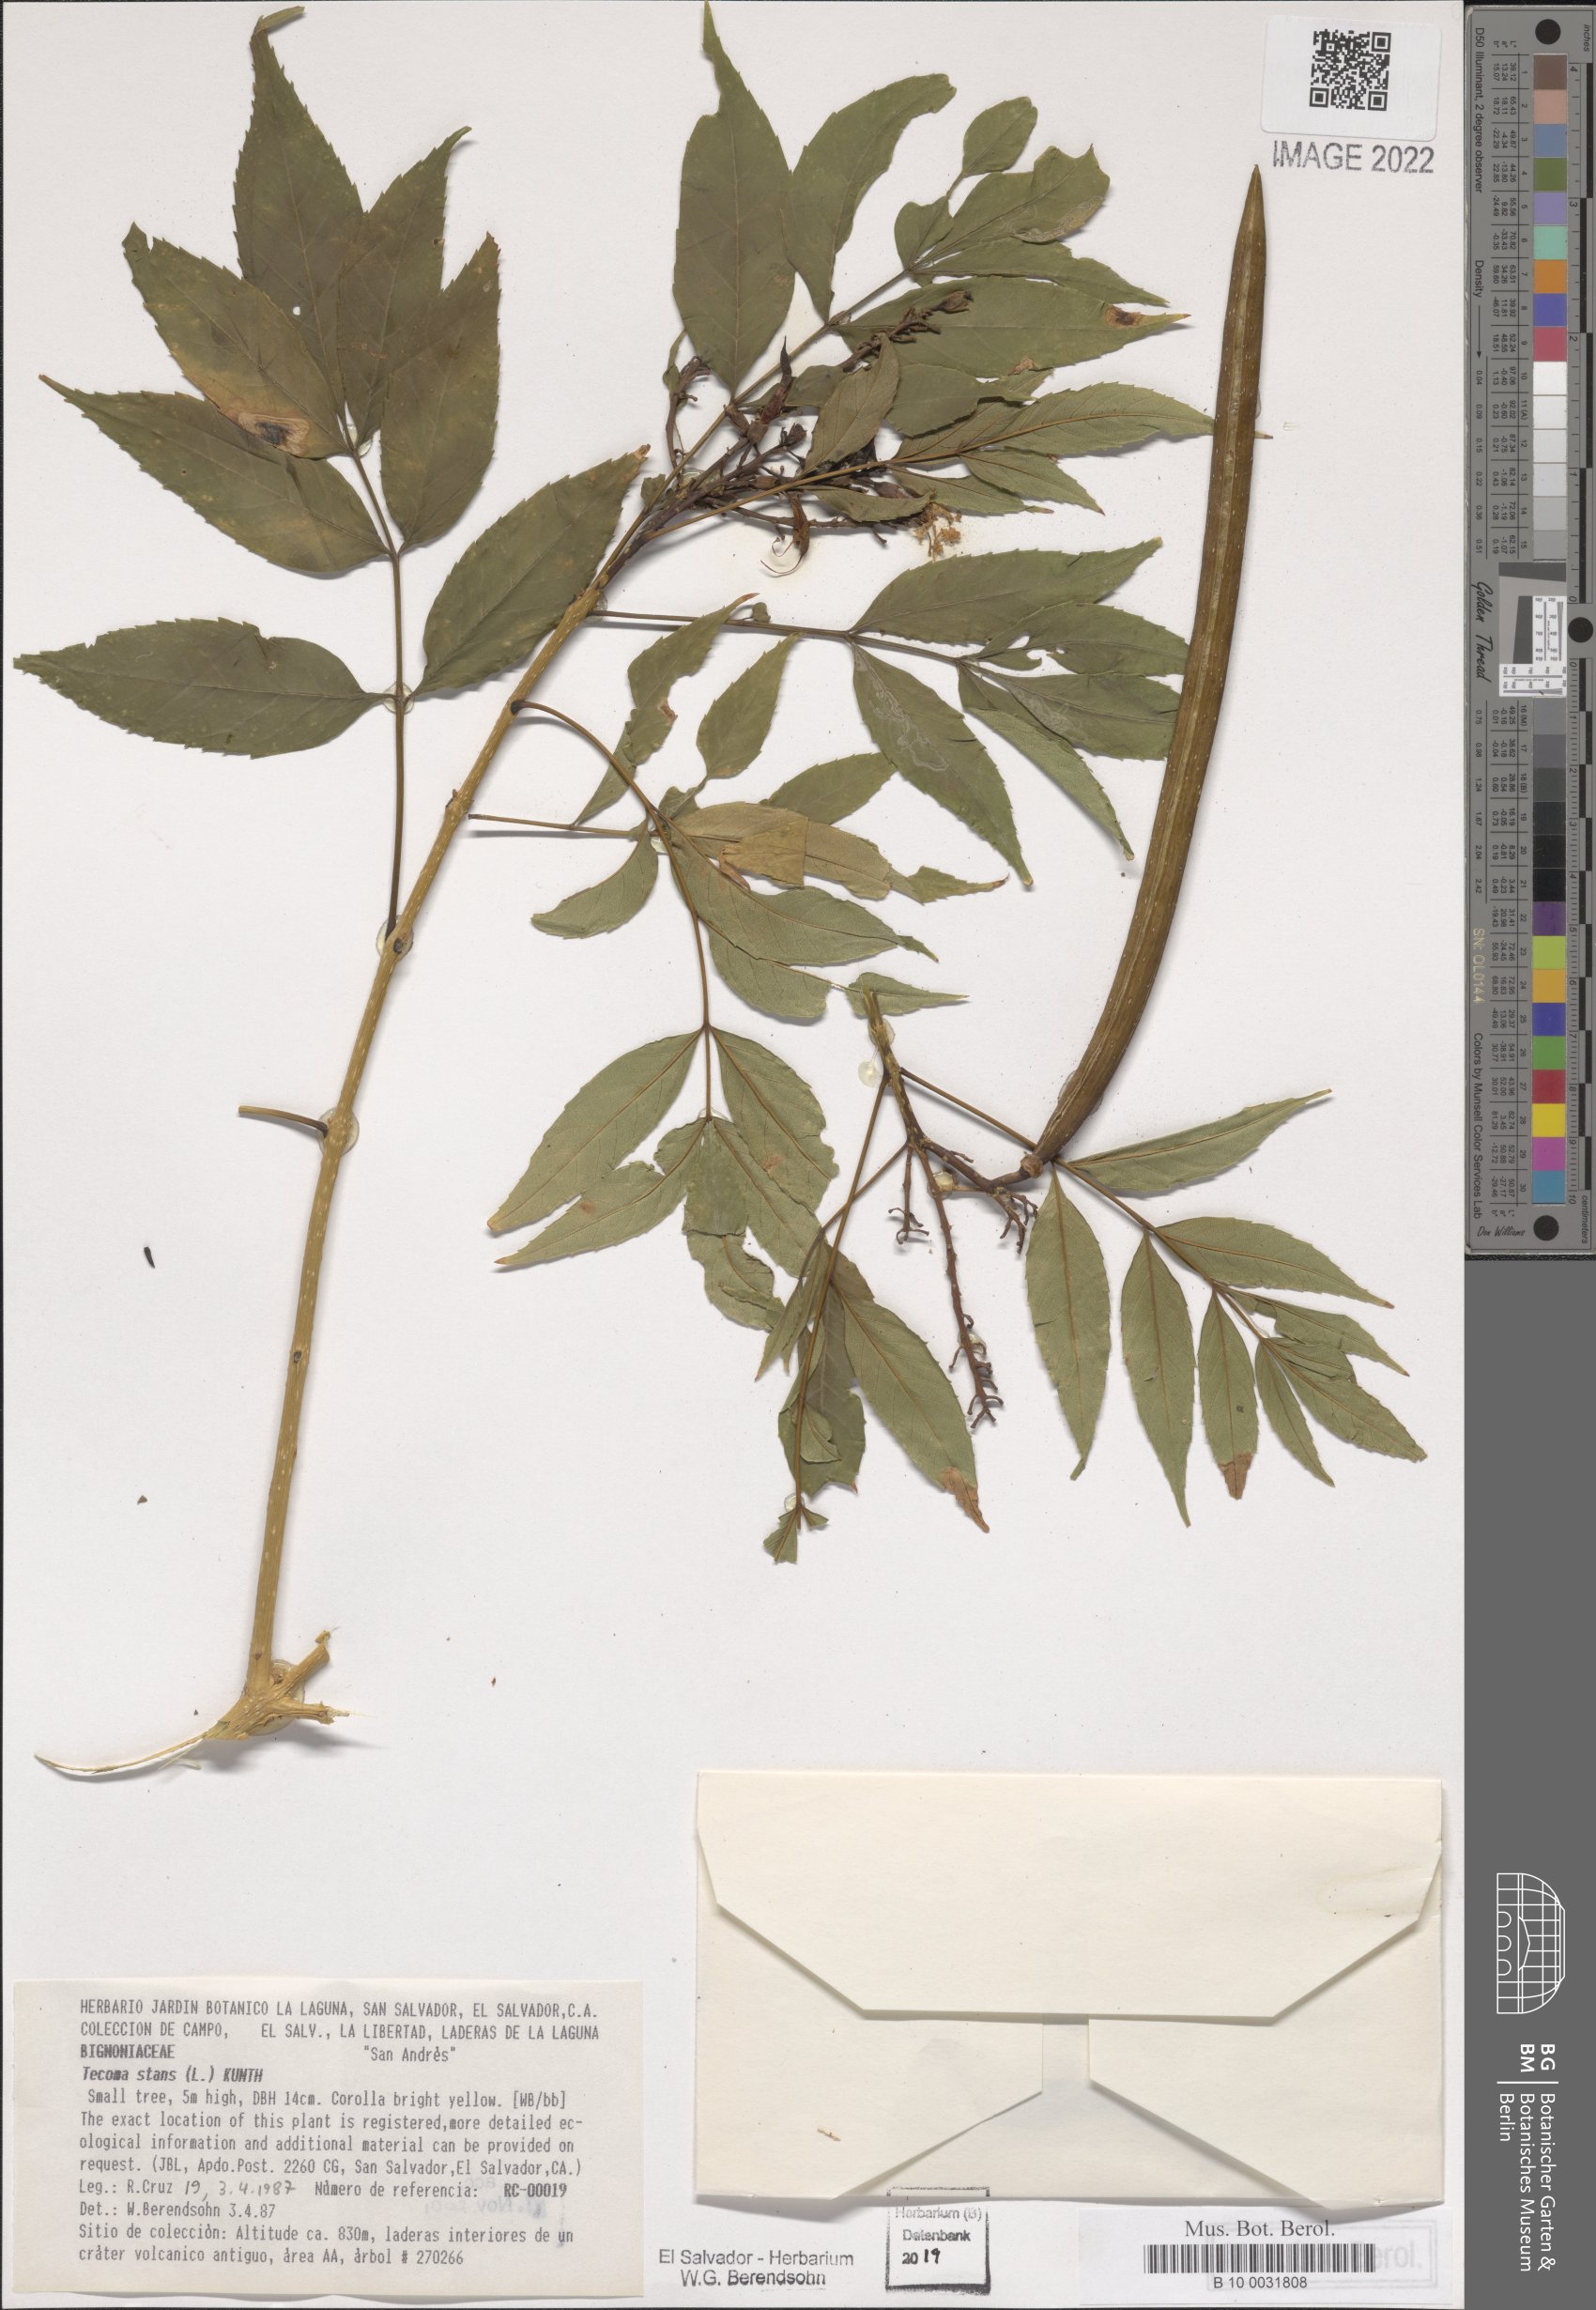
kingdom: Plantae
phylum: Tracheophyta
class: Magnoliopsida
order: Lamiales
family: Bignoniaceae
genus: Tecoma
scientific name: Tecoma stans
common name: Yellow trumpetbush
